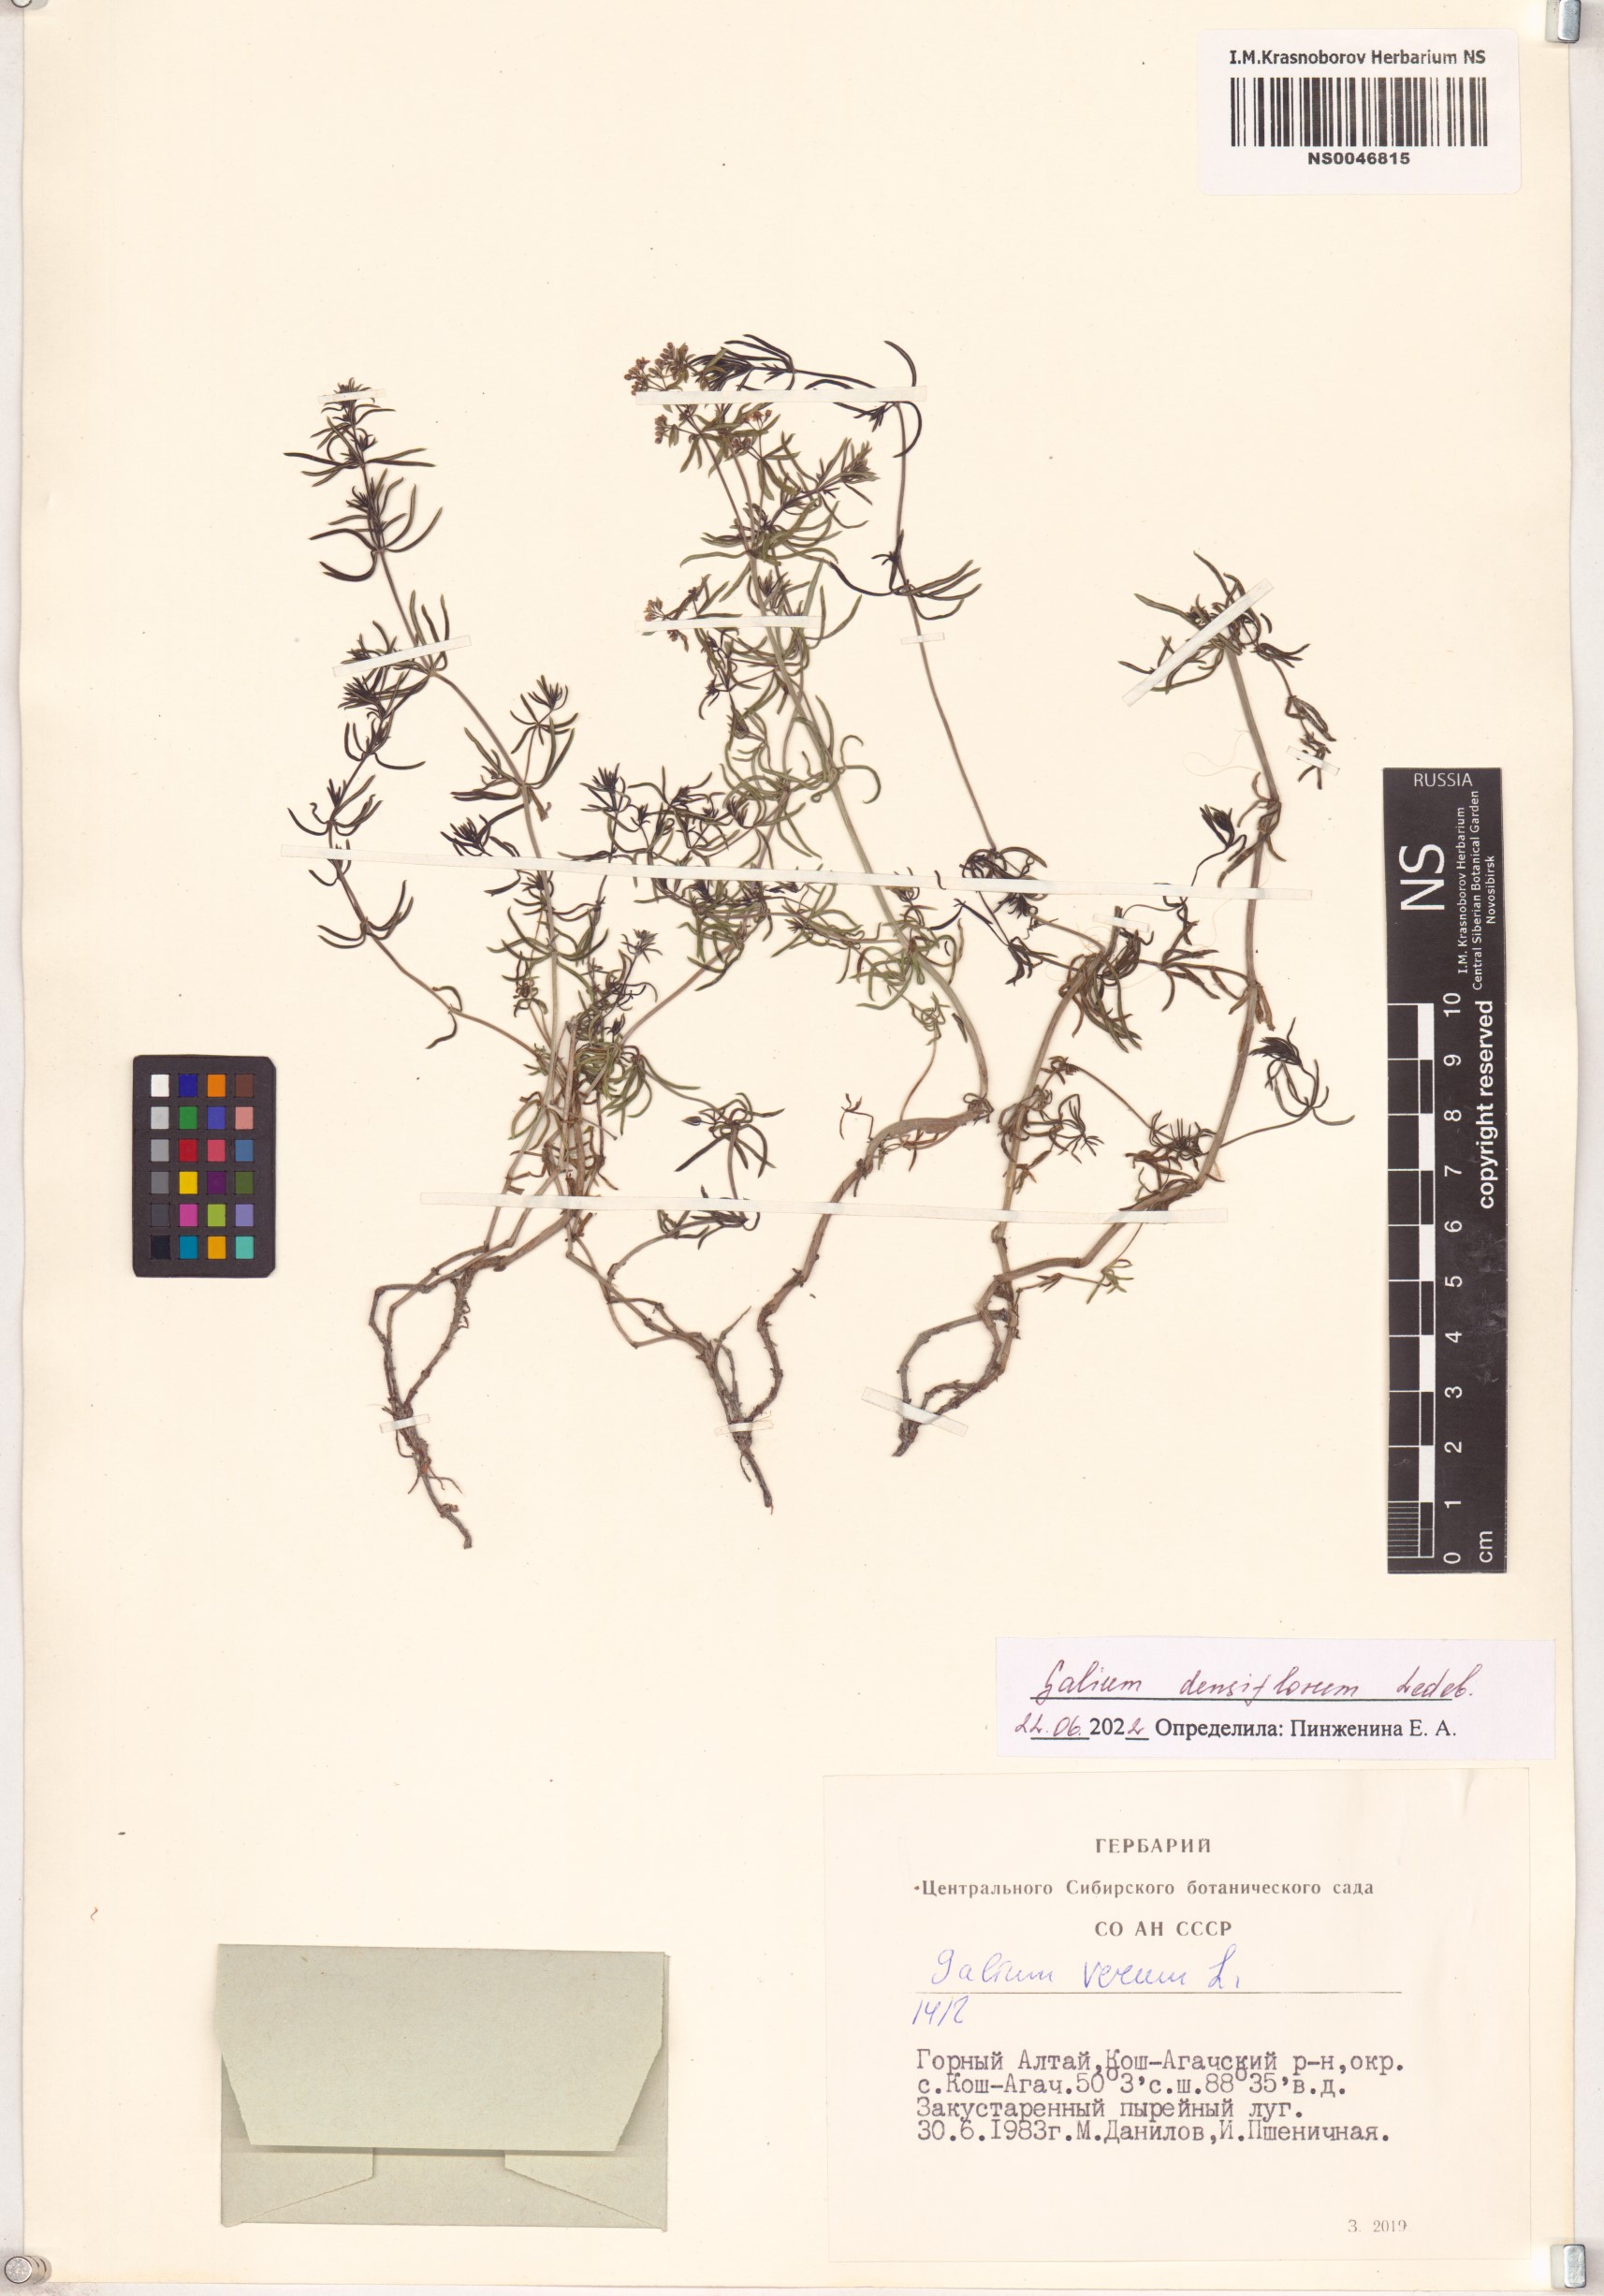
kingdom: Plantae
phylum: Tracheophyta
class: Magnoliopsida
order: Gentianales
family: Rubiaceae
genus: Galium
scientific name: Galium densiflorum
